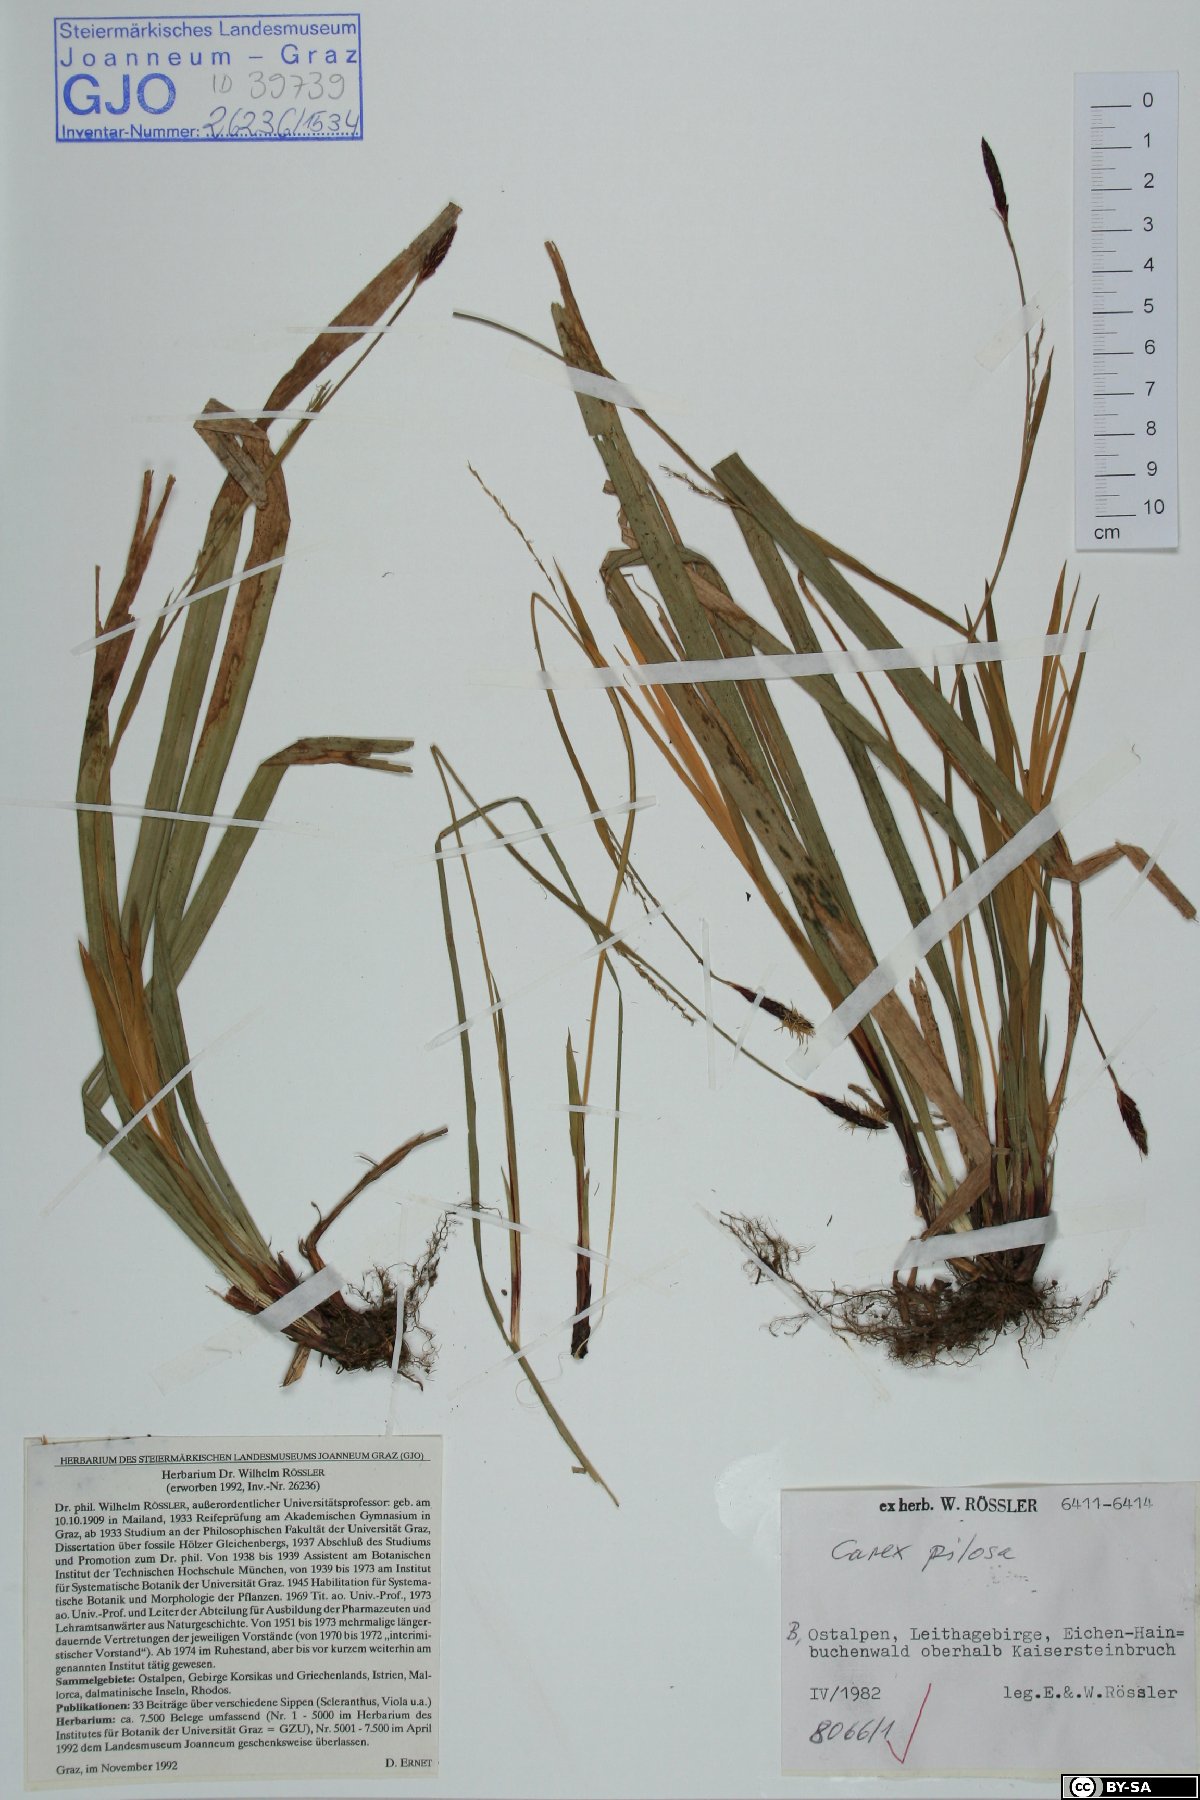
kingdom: Plantae
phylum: Tracheophyta
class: Liliopsida
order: Poales
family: Cyperaceae
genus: Carex
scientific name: Carex pilosa
